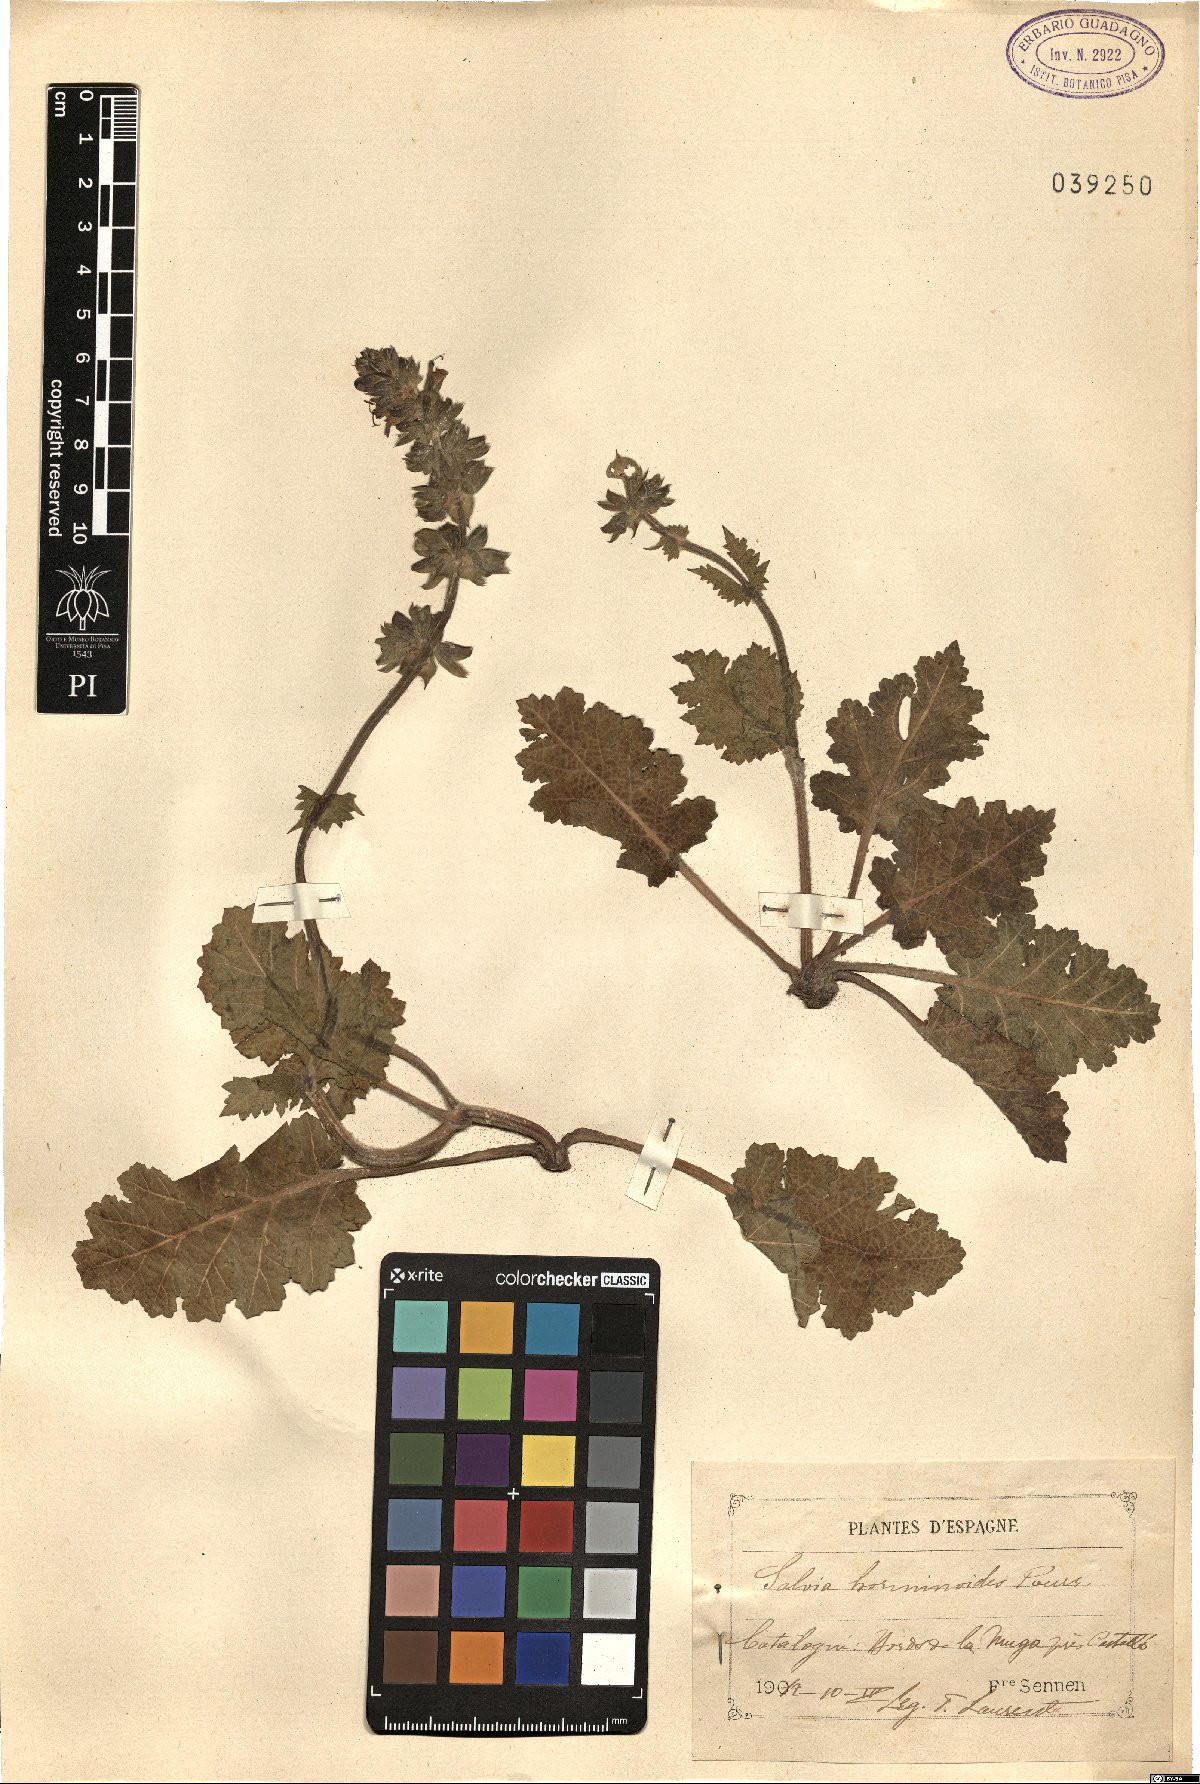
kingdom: Plantae
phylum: Tracheophyta
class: Magnoliopsida
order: Lamiales
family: Lamiaceae
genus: Salvia
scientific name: Salvia verbenaca
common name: Wild clary
